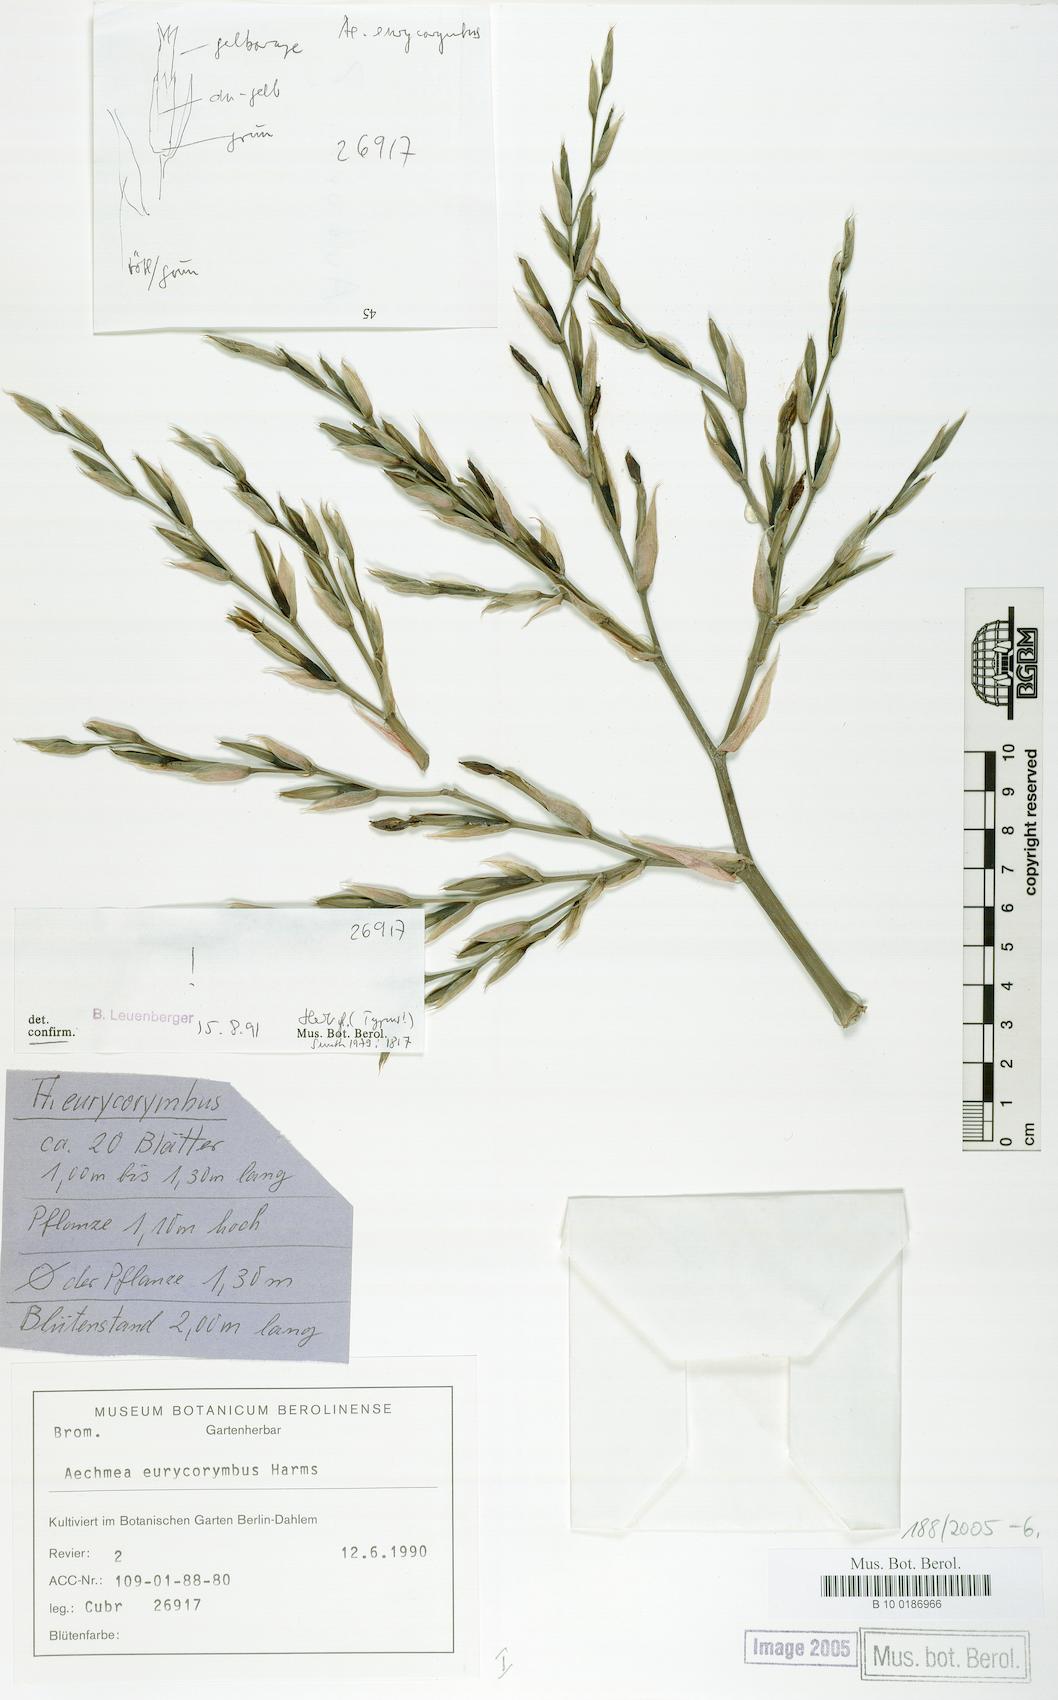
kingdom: Plantae
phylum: Tracheophyta
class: Liliopsida
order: Poales
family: Bromeliaceae
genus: Aechmea
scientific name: Aechmea eurycorymbus
